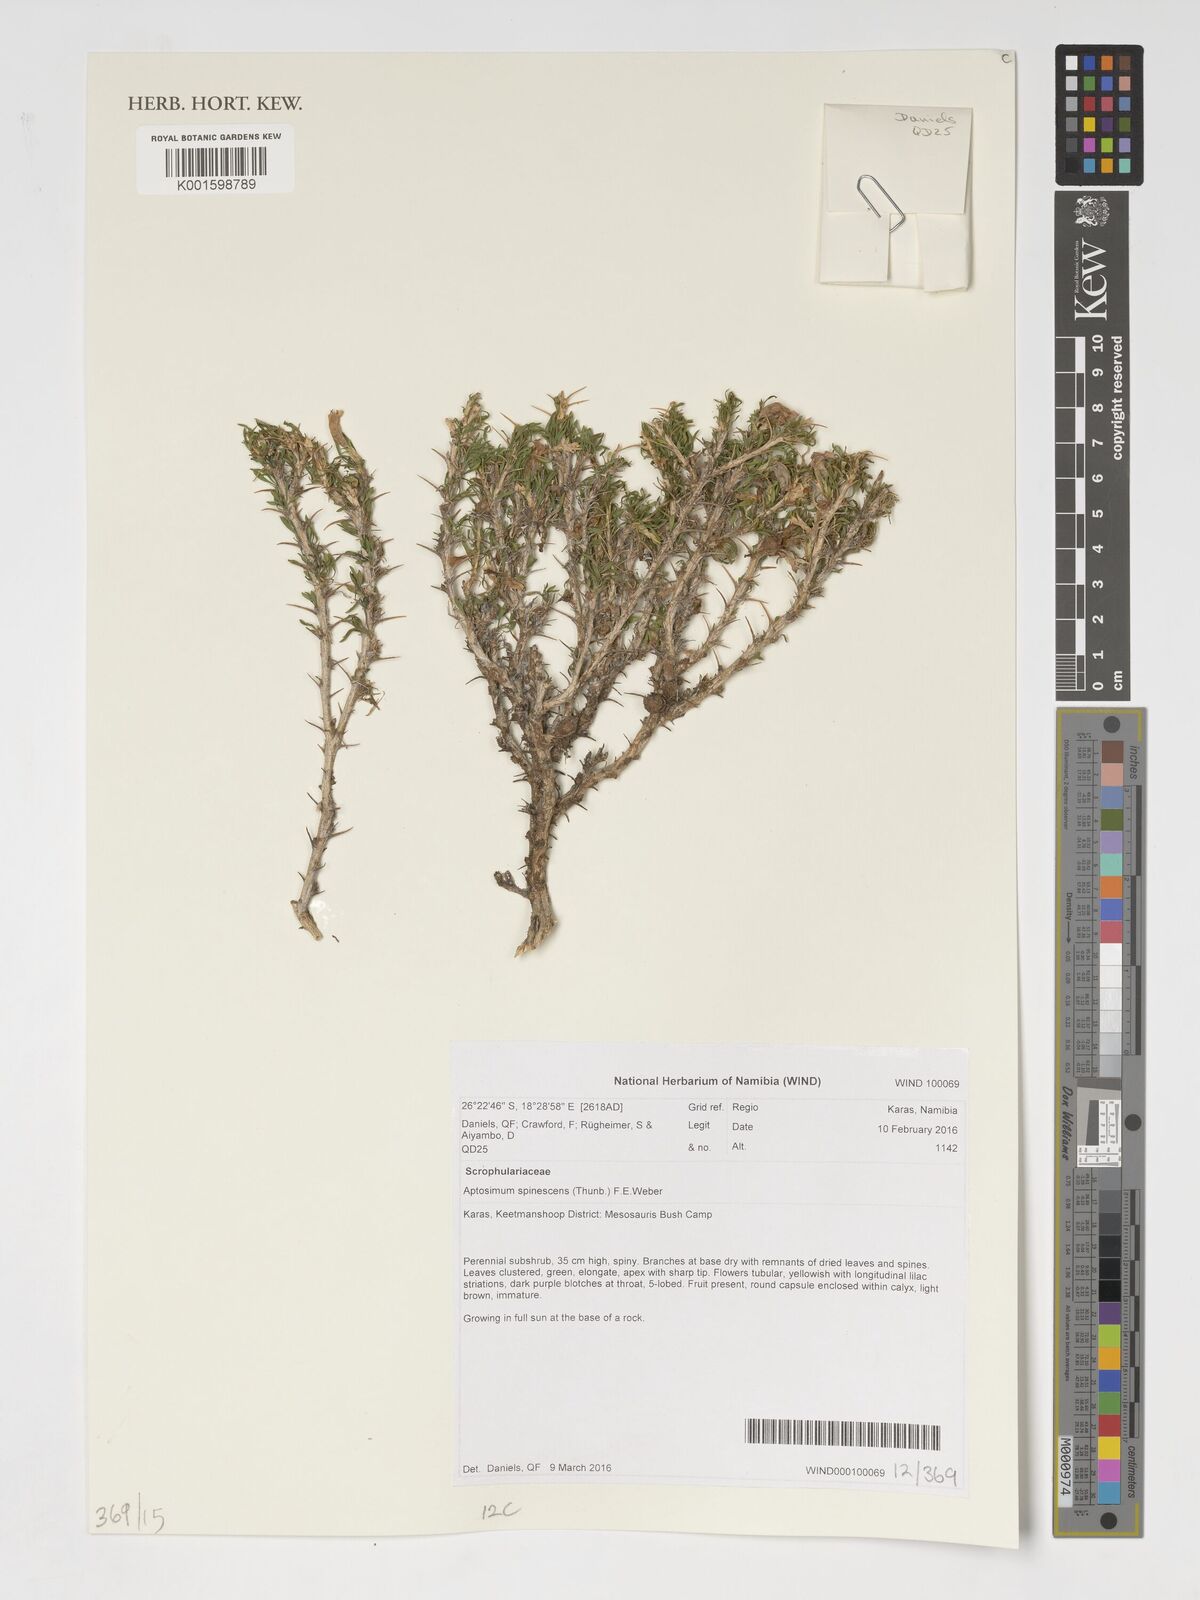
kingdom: Plantae
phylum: Tracheophyta
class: Magnoliopsida
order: Lamiales
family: Scrophulariaceae
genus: Aptosimum
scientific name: Aptosimum spinescens
